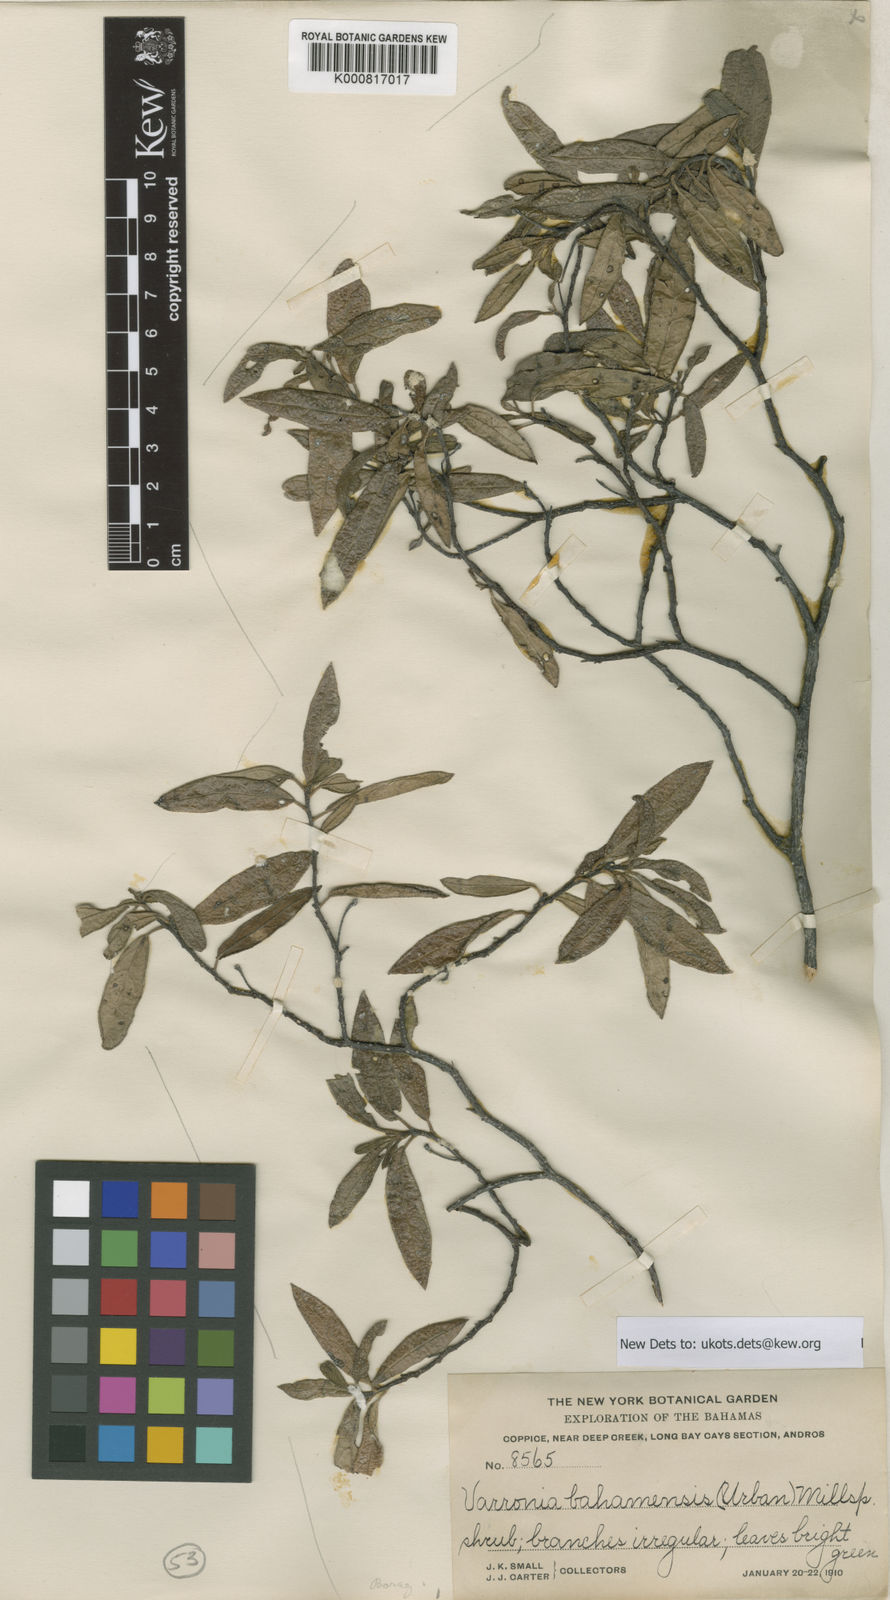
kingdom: Plantae
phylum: Tracheophyta
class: Magnoliopsida
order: Boraginales
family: Cordiaceae
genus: Varronia
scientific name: Varronia bahamensis
